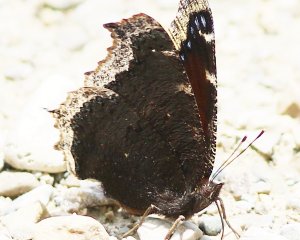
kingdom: Animalia
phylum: Arthropoda
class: Insecta
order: Lepidoptera
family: Nymphalidae
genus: Nymphalis
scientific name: Nymphalis antiopa
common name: Mourning Cloak
